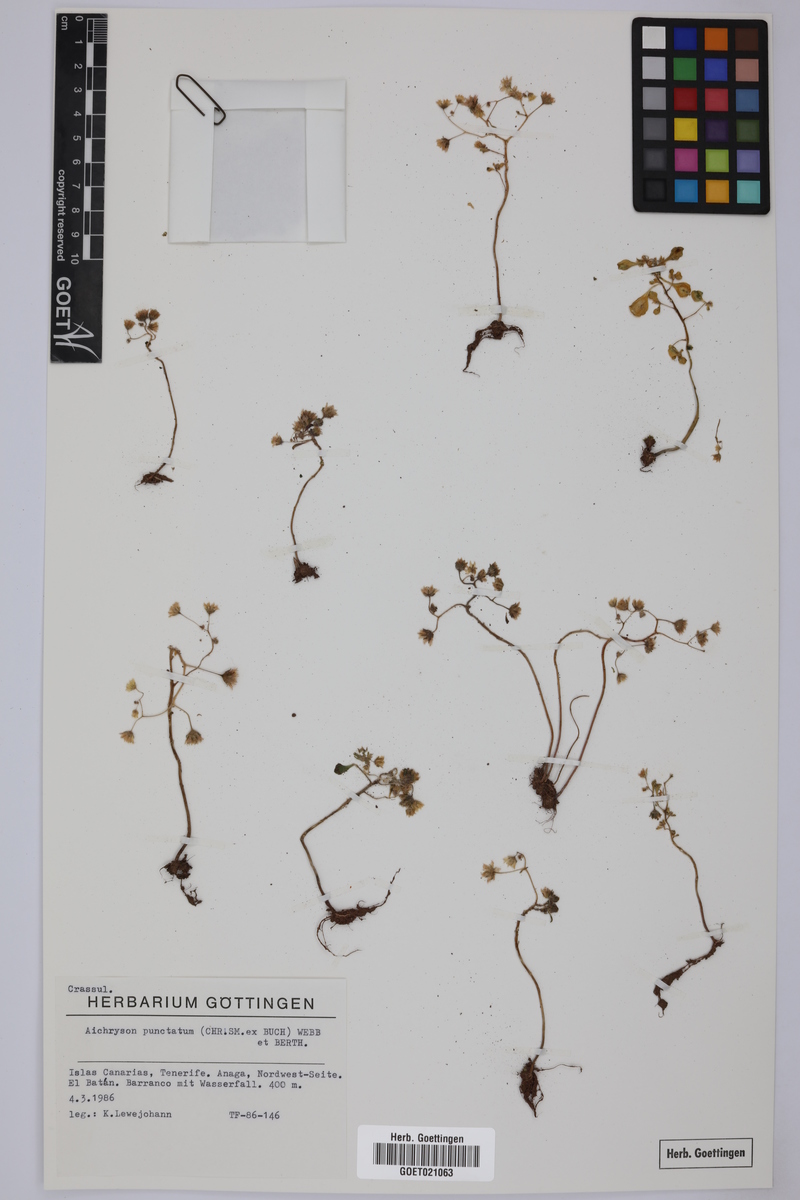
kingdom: Plantae
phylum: Tracheophyta
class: Magnoliopsida
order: Saxifragales
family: Crassulaceae
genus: Aichryson
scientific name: Aichryson punctatum
